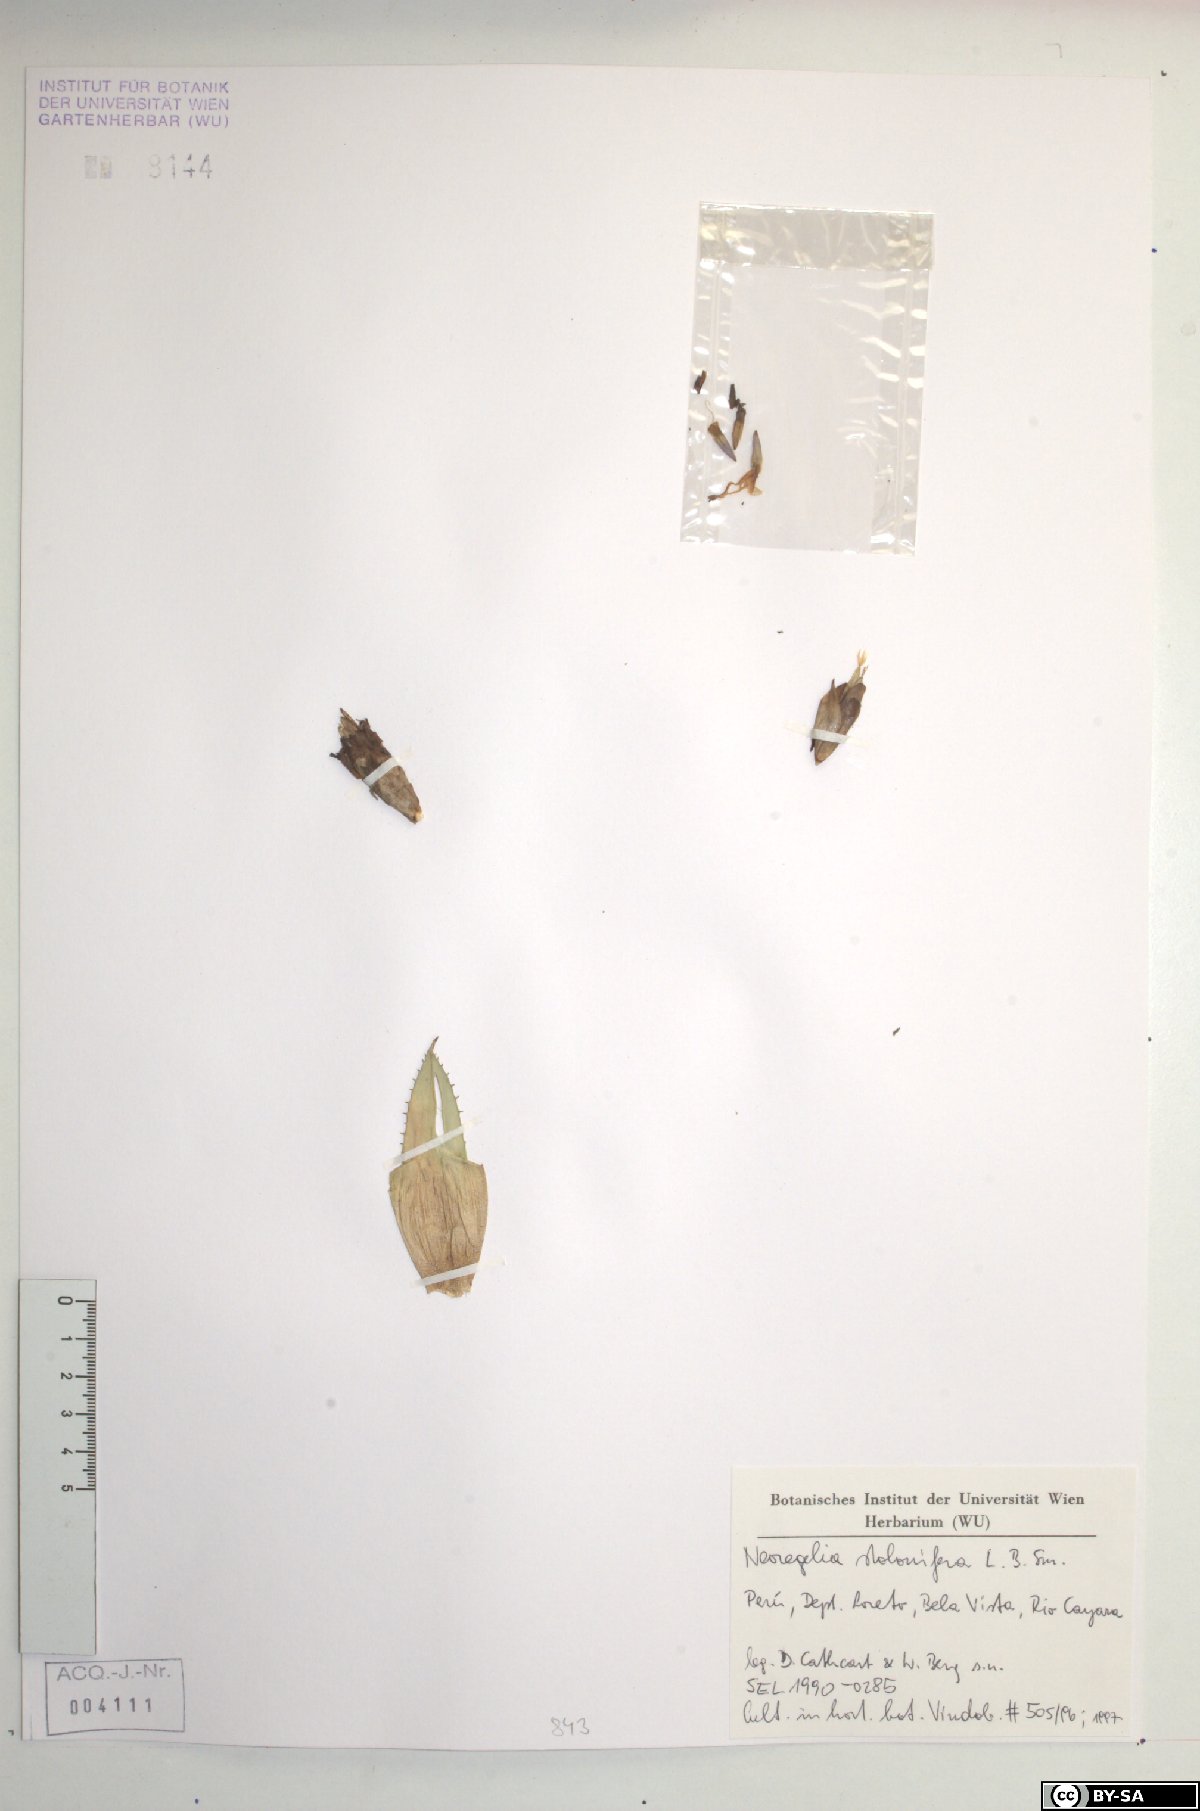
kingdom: Plantae
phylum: Tracheophyta
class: Liliopsida
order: Poales
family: Bromeliaceae
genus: Hylaeaicum
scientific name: Hylaeaicum stoloniferum
